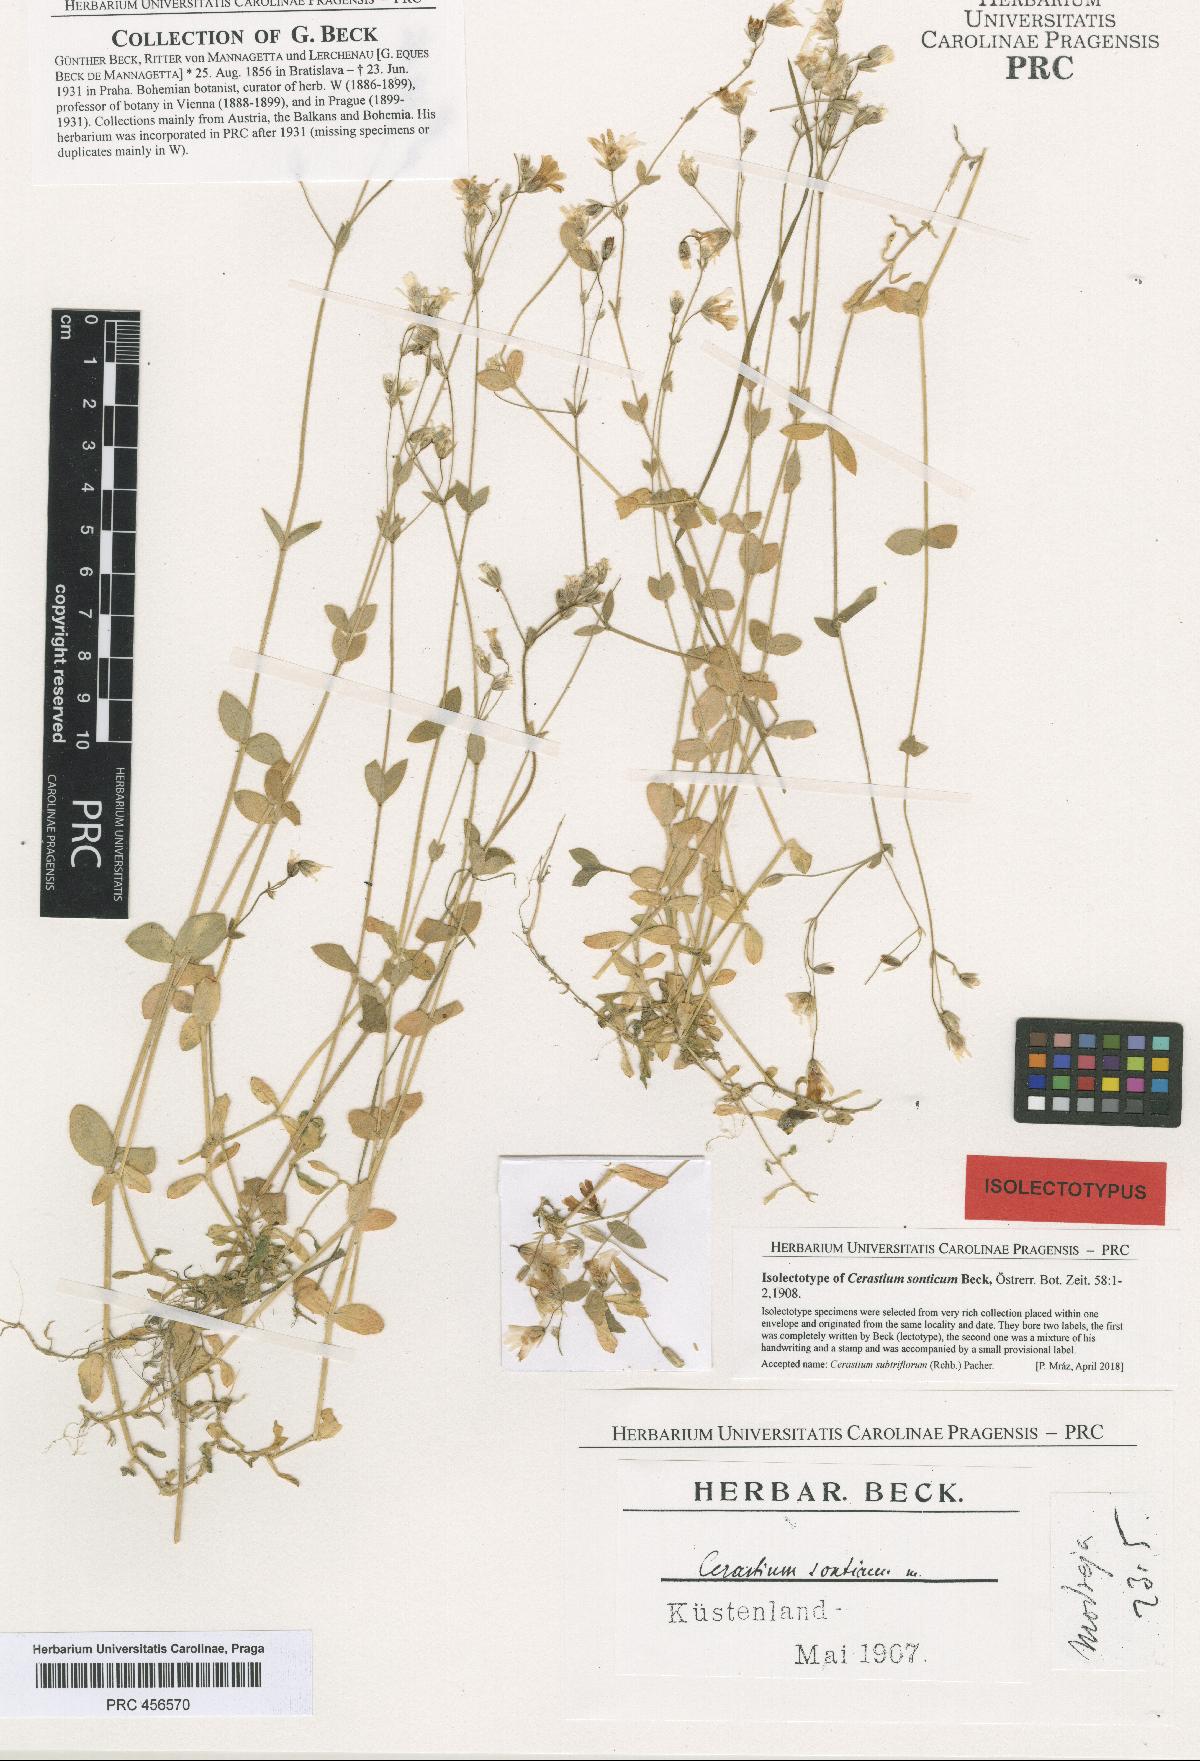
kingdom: Plantae
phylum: Tracheophyta
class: Magnoliopsida
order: Caryophyllales
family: Caryophyllaceae
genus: Cerastium
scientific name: Cerastium subtriflorum
